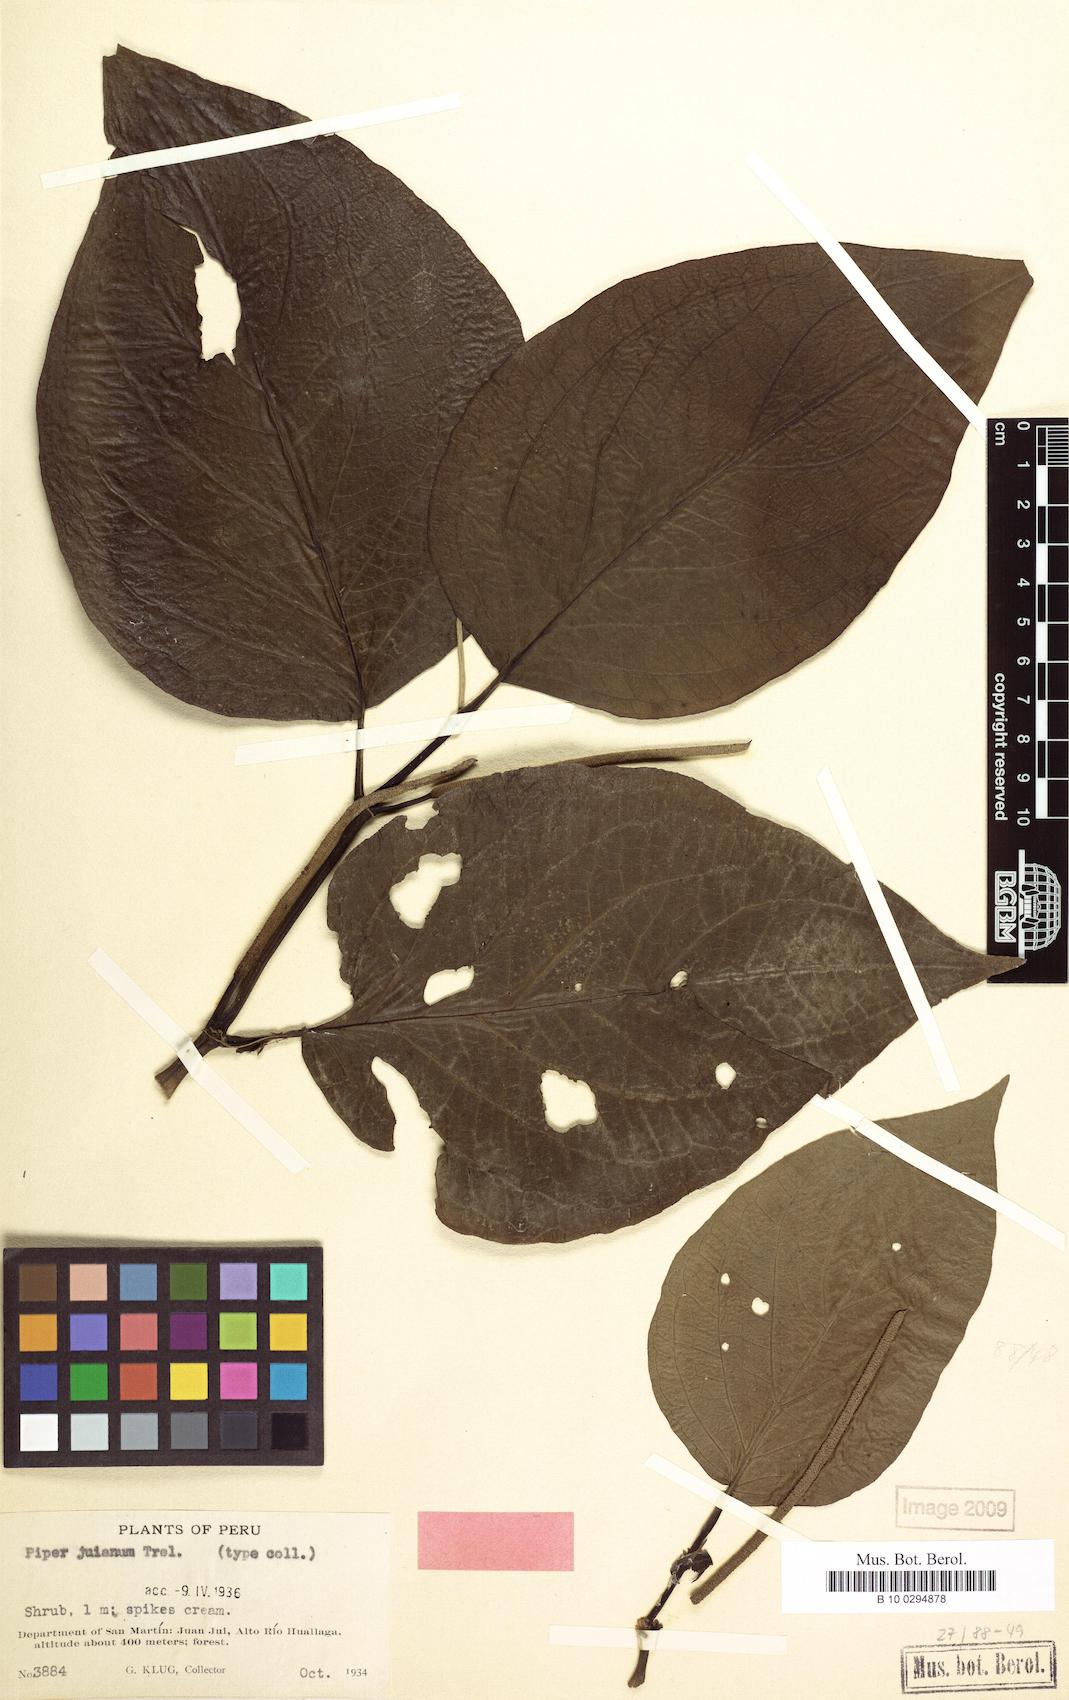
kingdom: Plantae
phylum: Tracheophyta
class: Magnoliopsida
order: Piperales
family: Piperaceae
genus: Piper
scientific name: Piper jubatum
